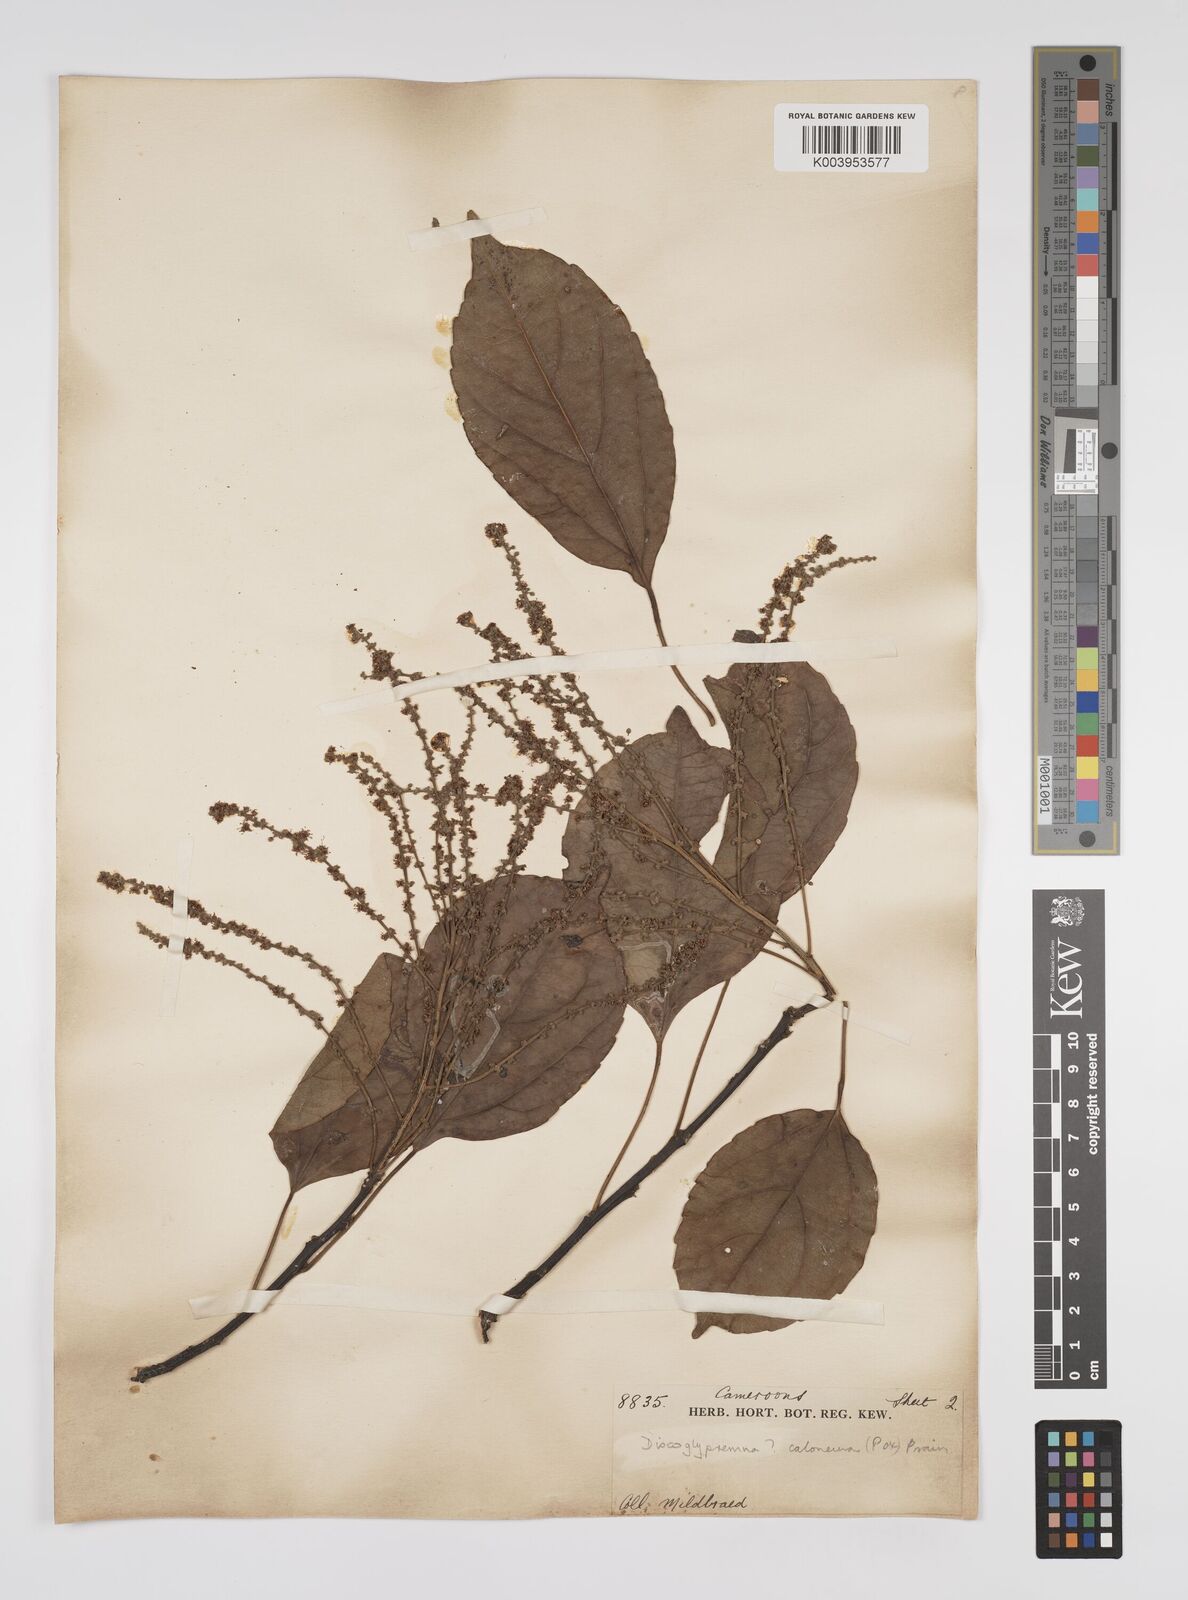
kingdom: Plantae
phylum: Tracheophyta
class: Magnoliopsida
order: Malpighiales
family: Euphorbiaceae
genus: Discoglypremna
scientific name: Discoglypremna caloneura
